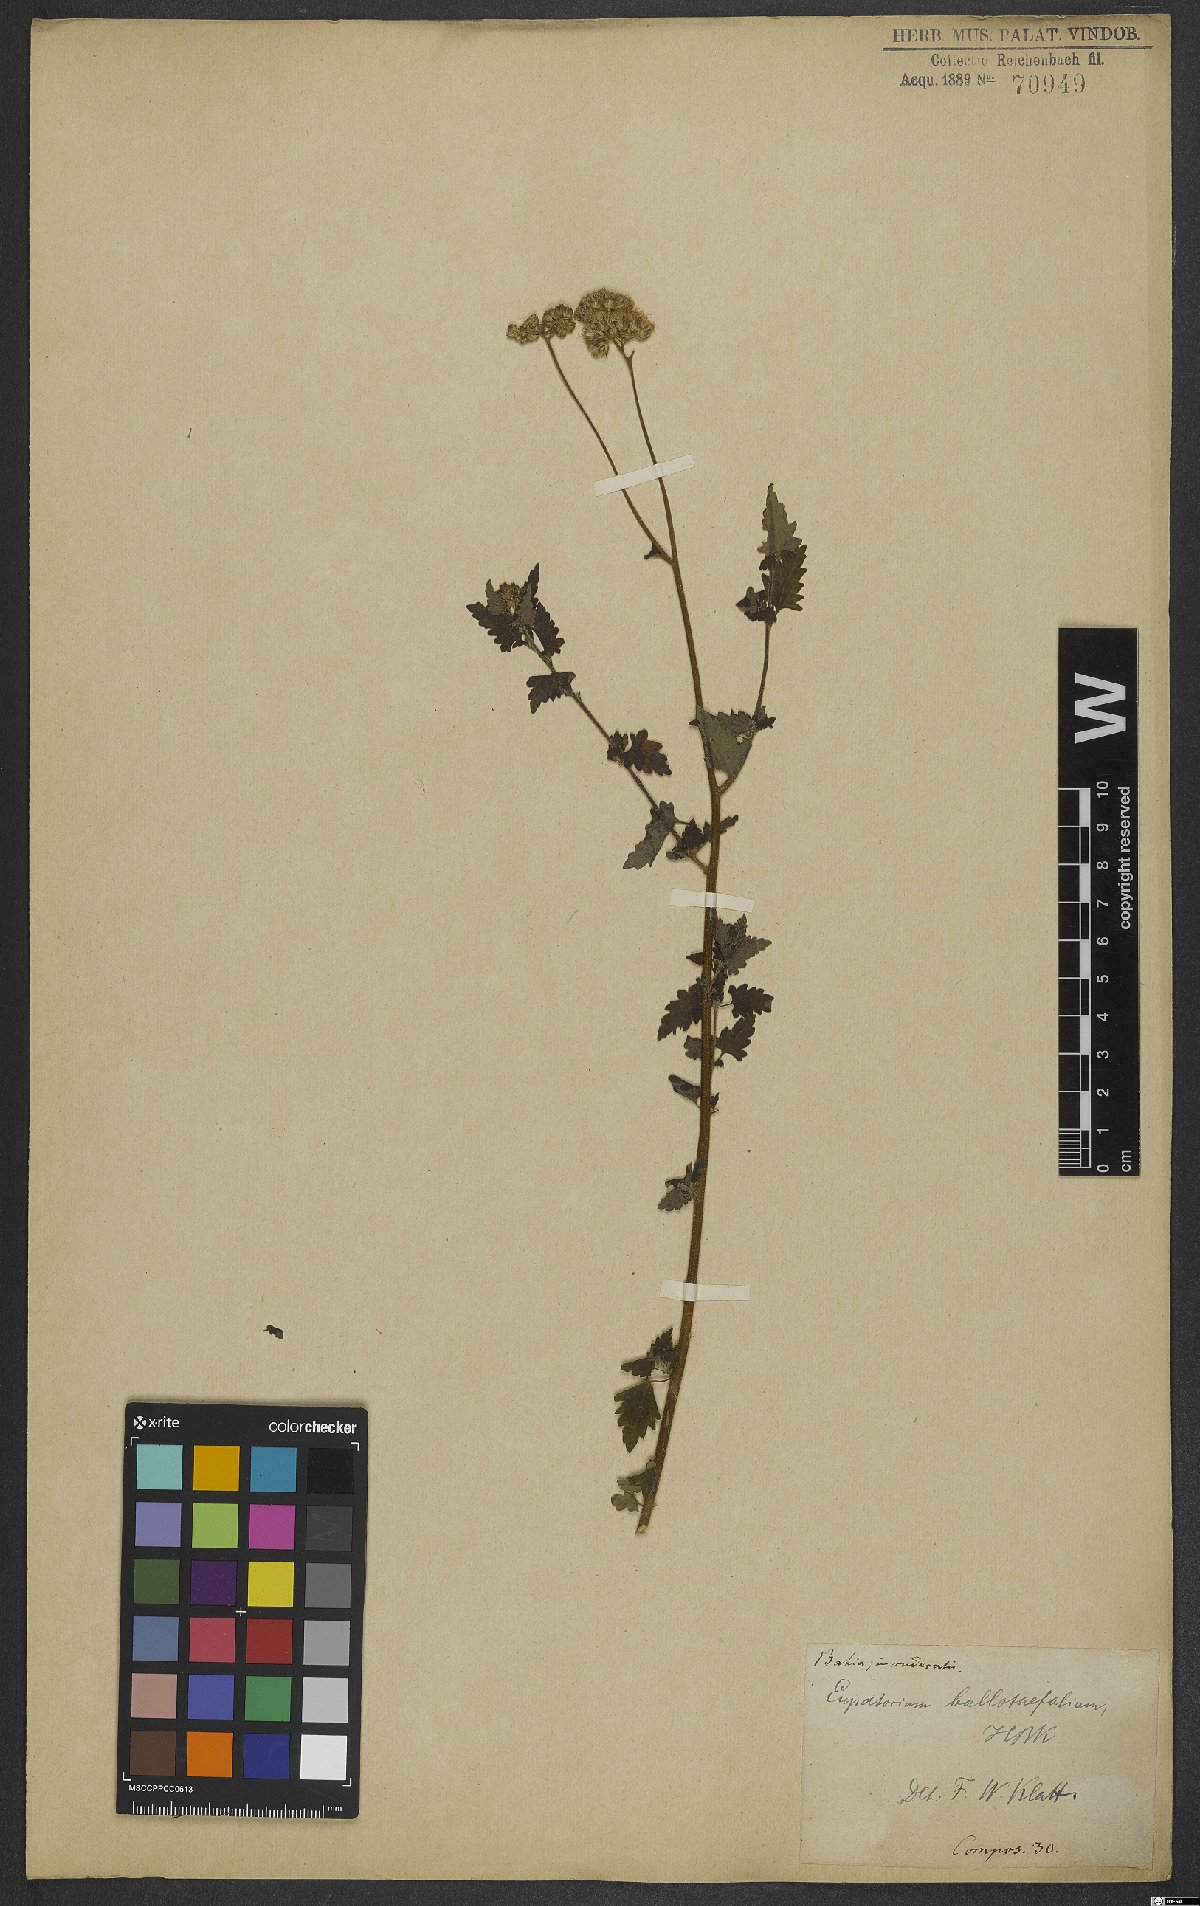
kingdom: Plantae
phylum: Tracheophyta
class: Magnoliopsida
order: Asterales
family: Asteraceae
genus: Lourteigia
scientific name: Lourteigia ballotifolia
